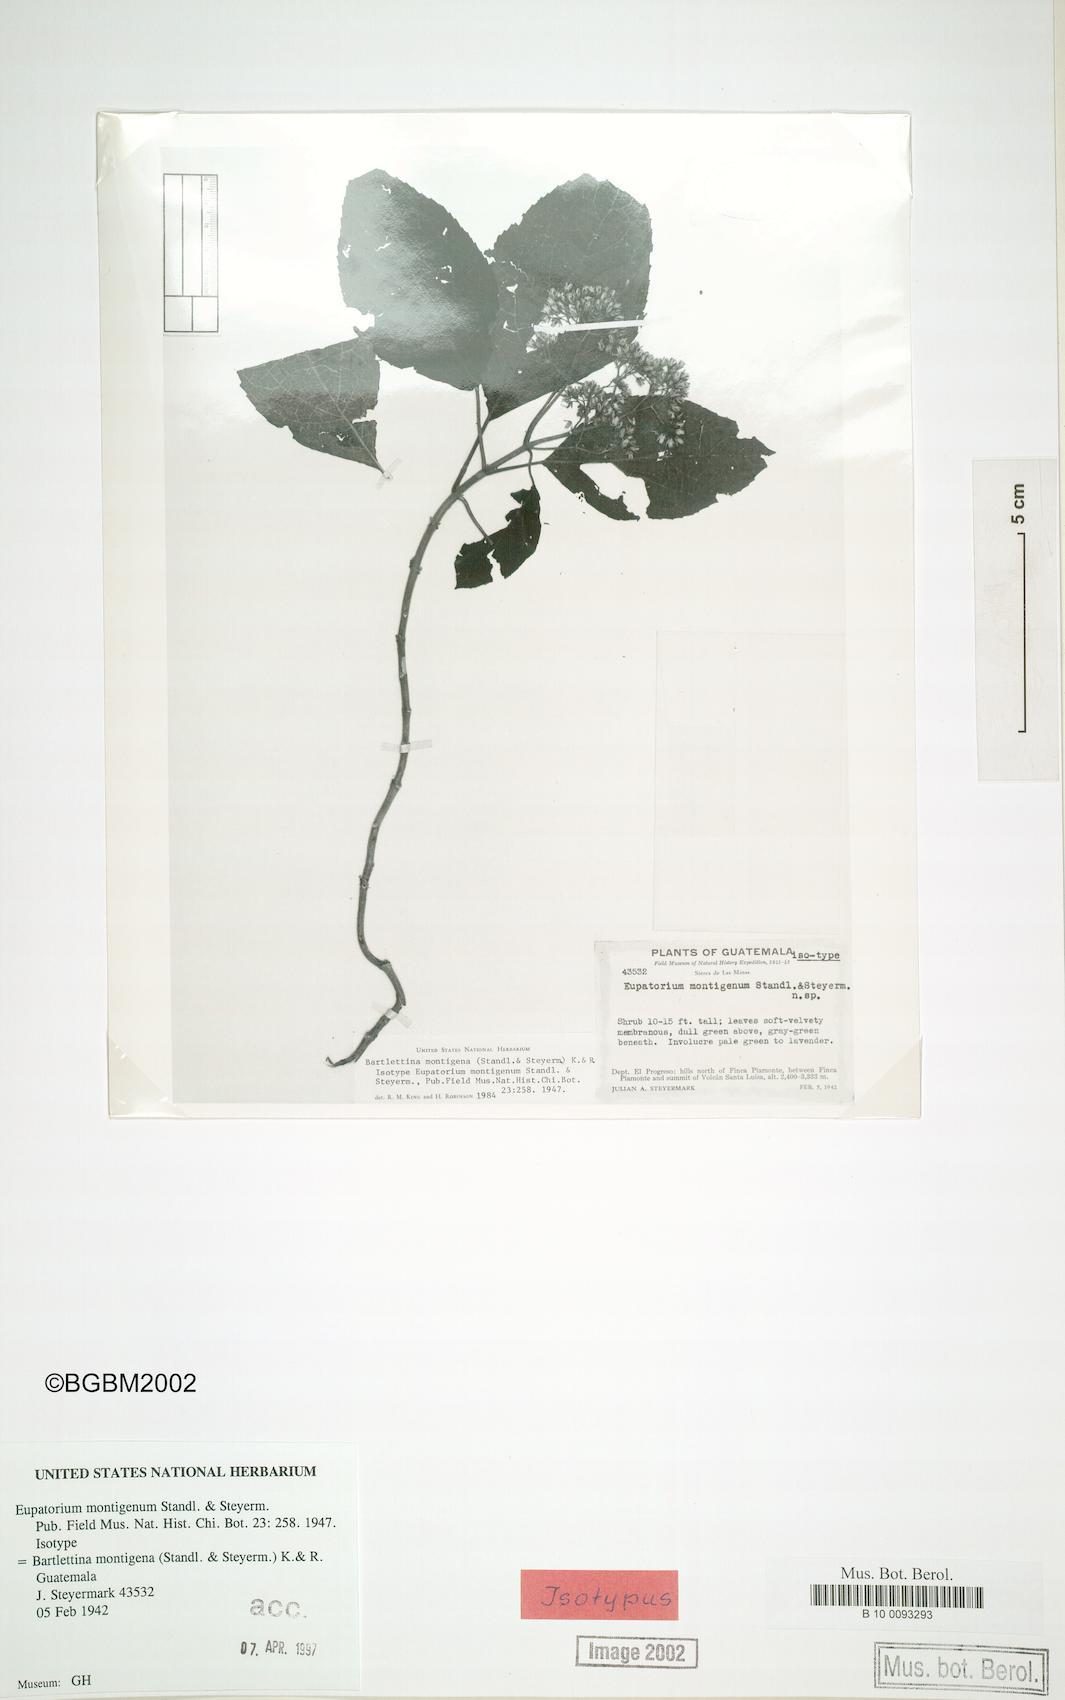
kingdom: Plantae
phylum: Tracheophyta
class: Magnoliopsida
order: Asterales
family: Asteraceae
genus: Bartlettina
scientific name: Bartlettina montigena
